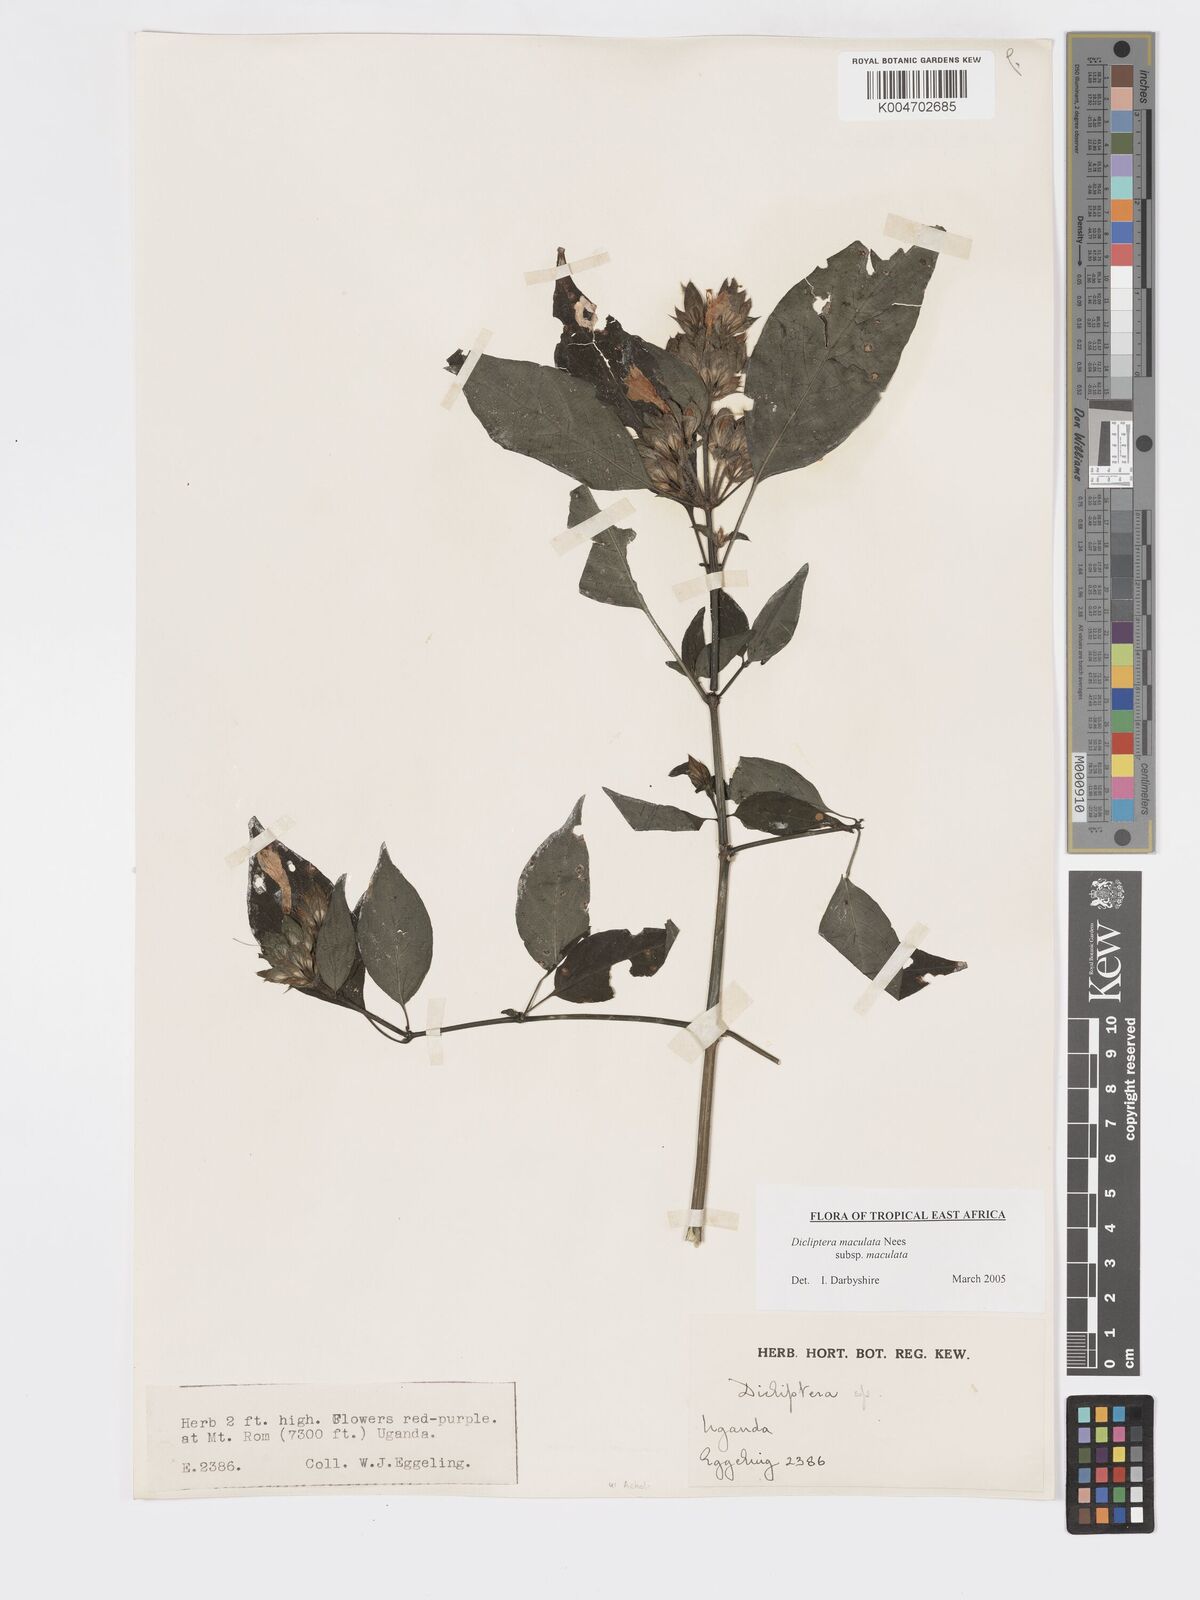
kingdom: Plantae
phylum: Tracheophyta
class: Magnoliopsida
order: Lamiales
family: Acanthaceae
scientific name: Acanthaceae
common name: Acanthaceae
